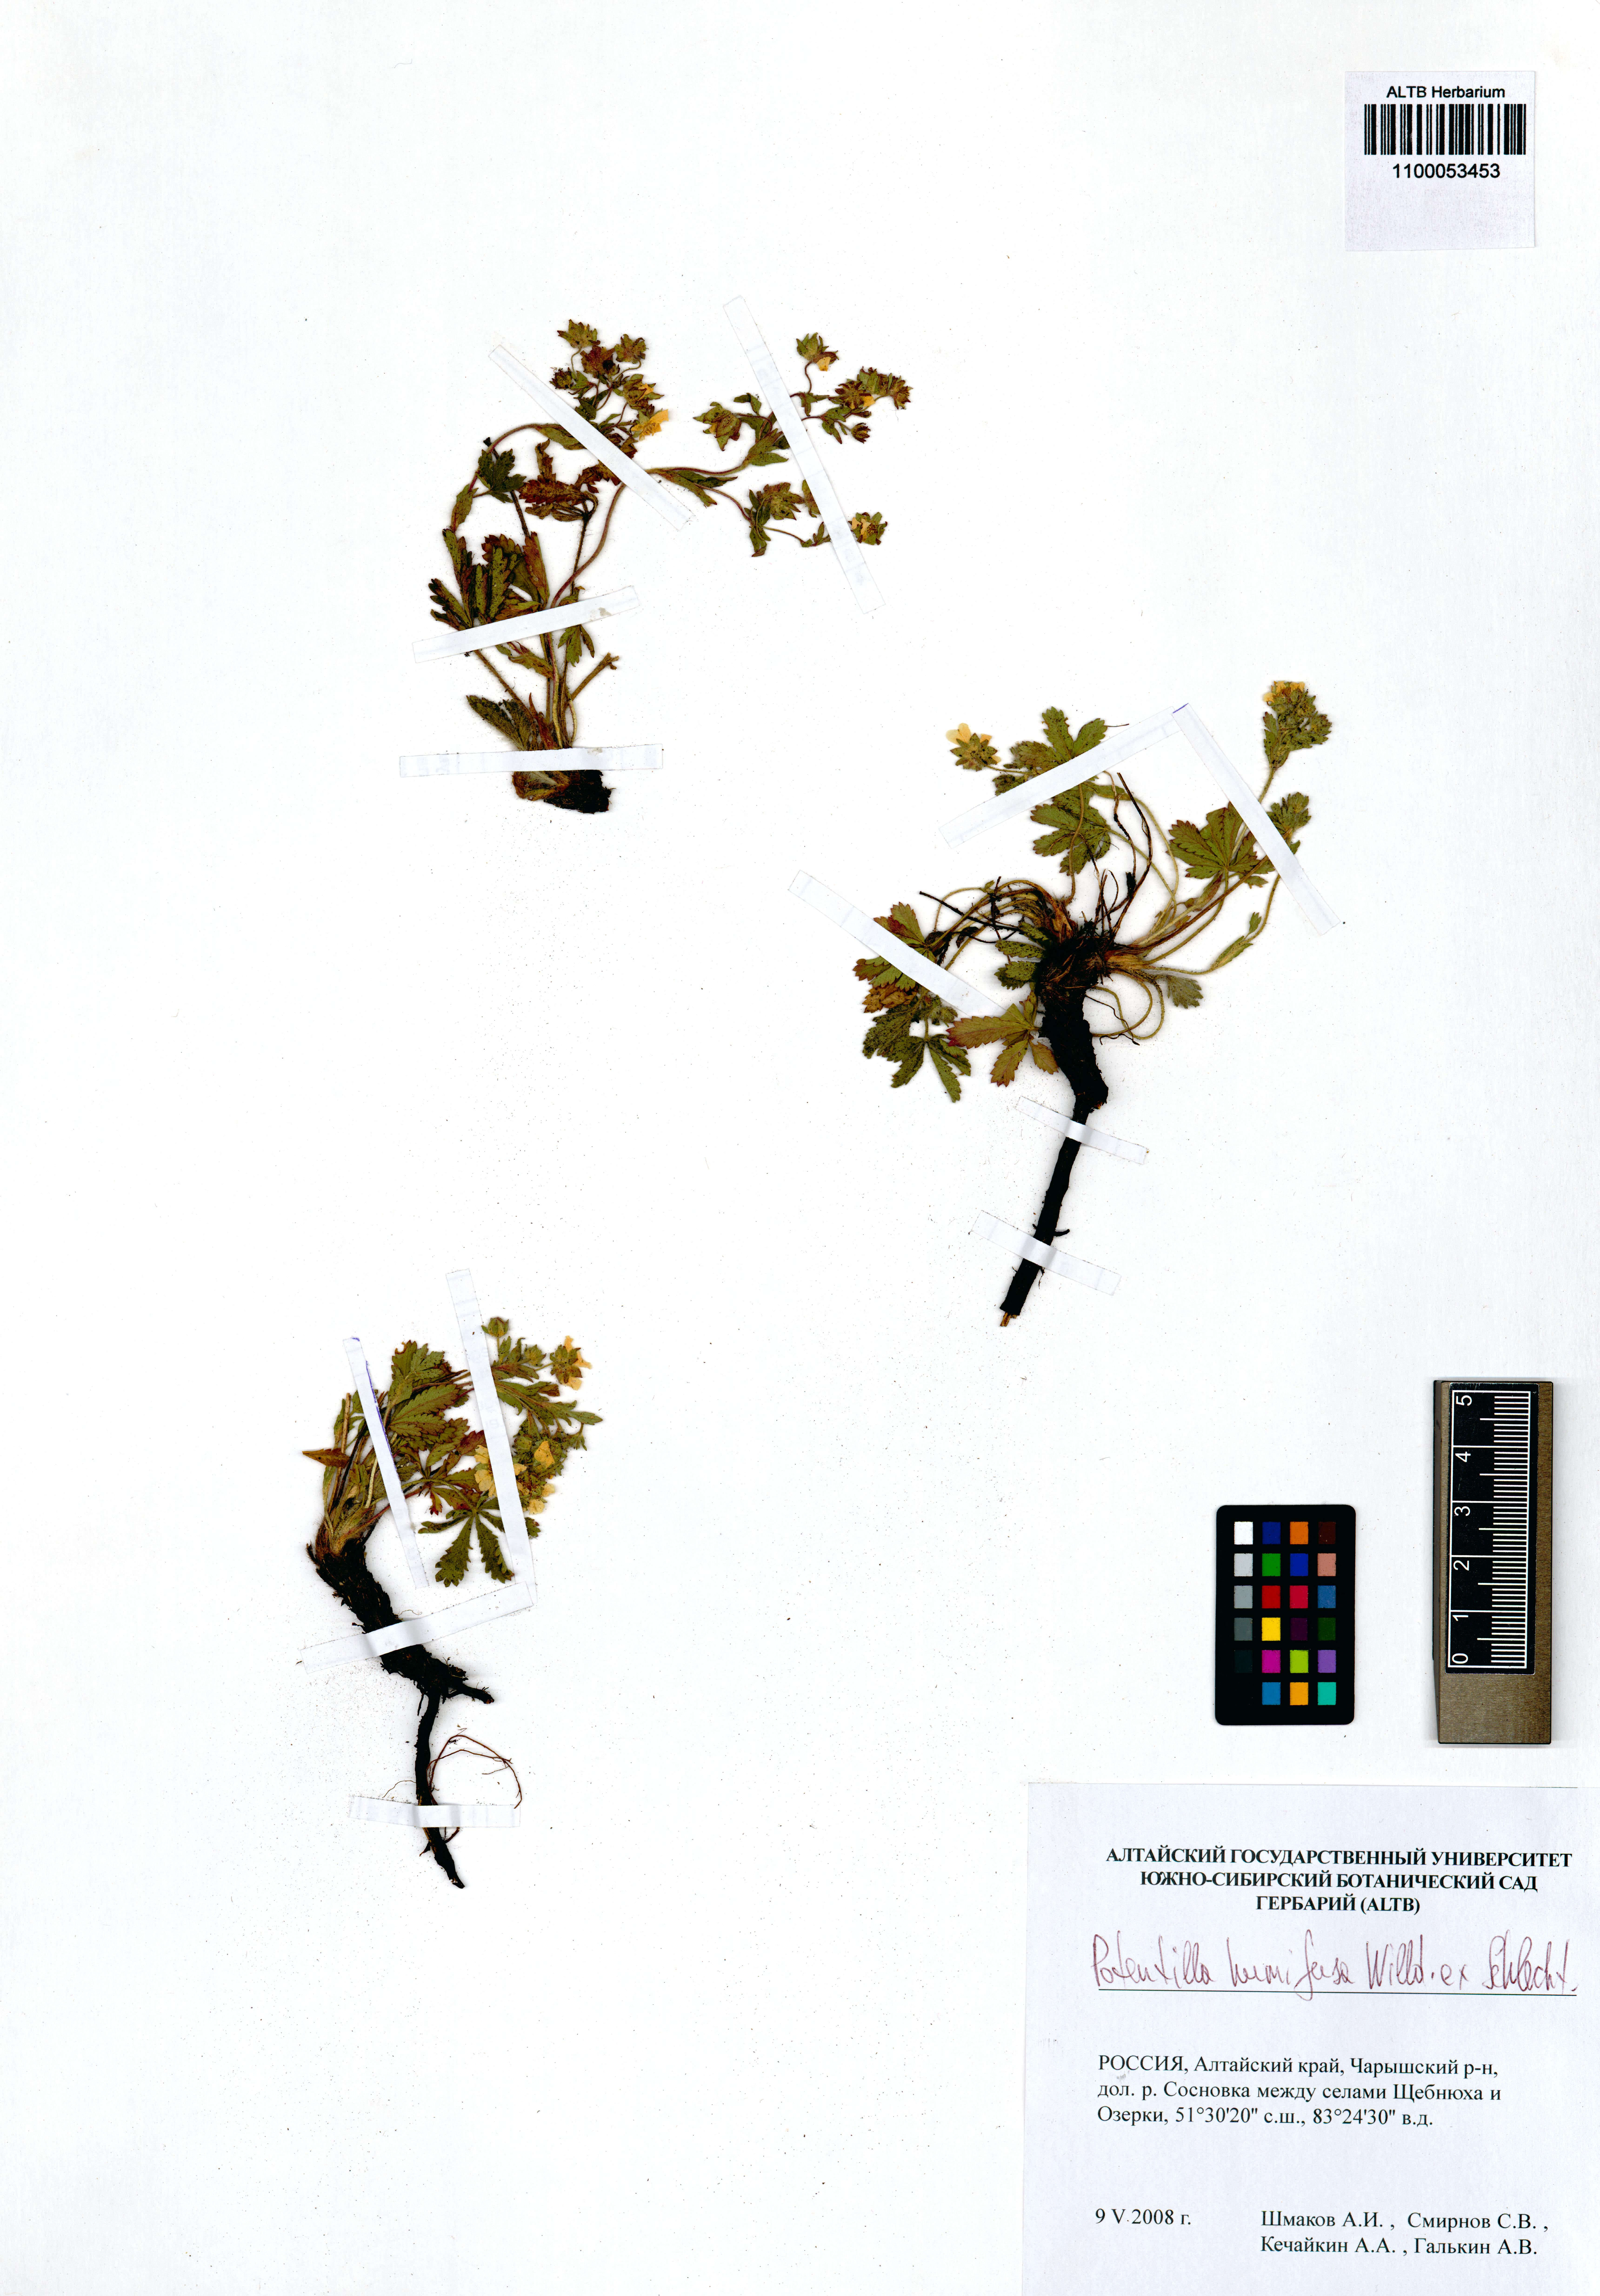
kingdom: Plantae
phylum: Tracheophyta
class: Magnoliopsida
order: Rosales
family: Rosaceae
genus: Potentilla
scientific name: Potentilla humifusa
